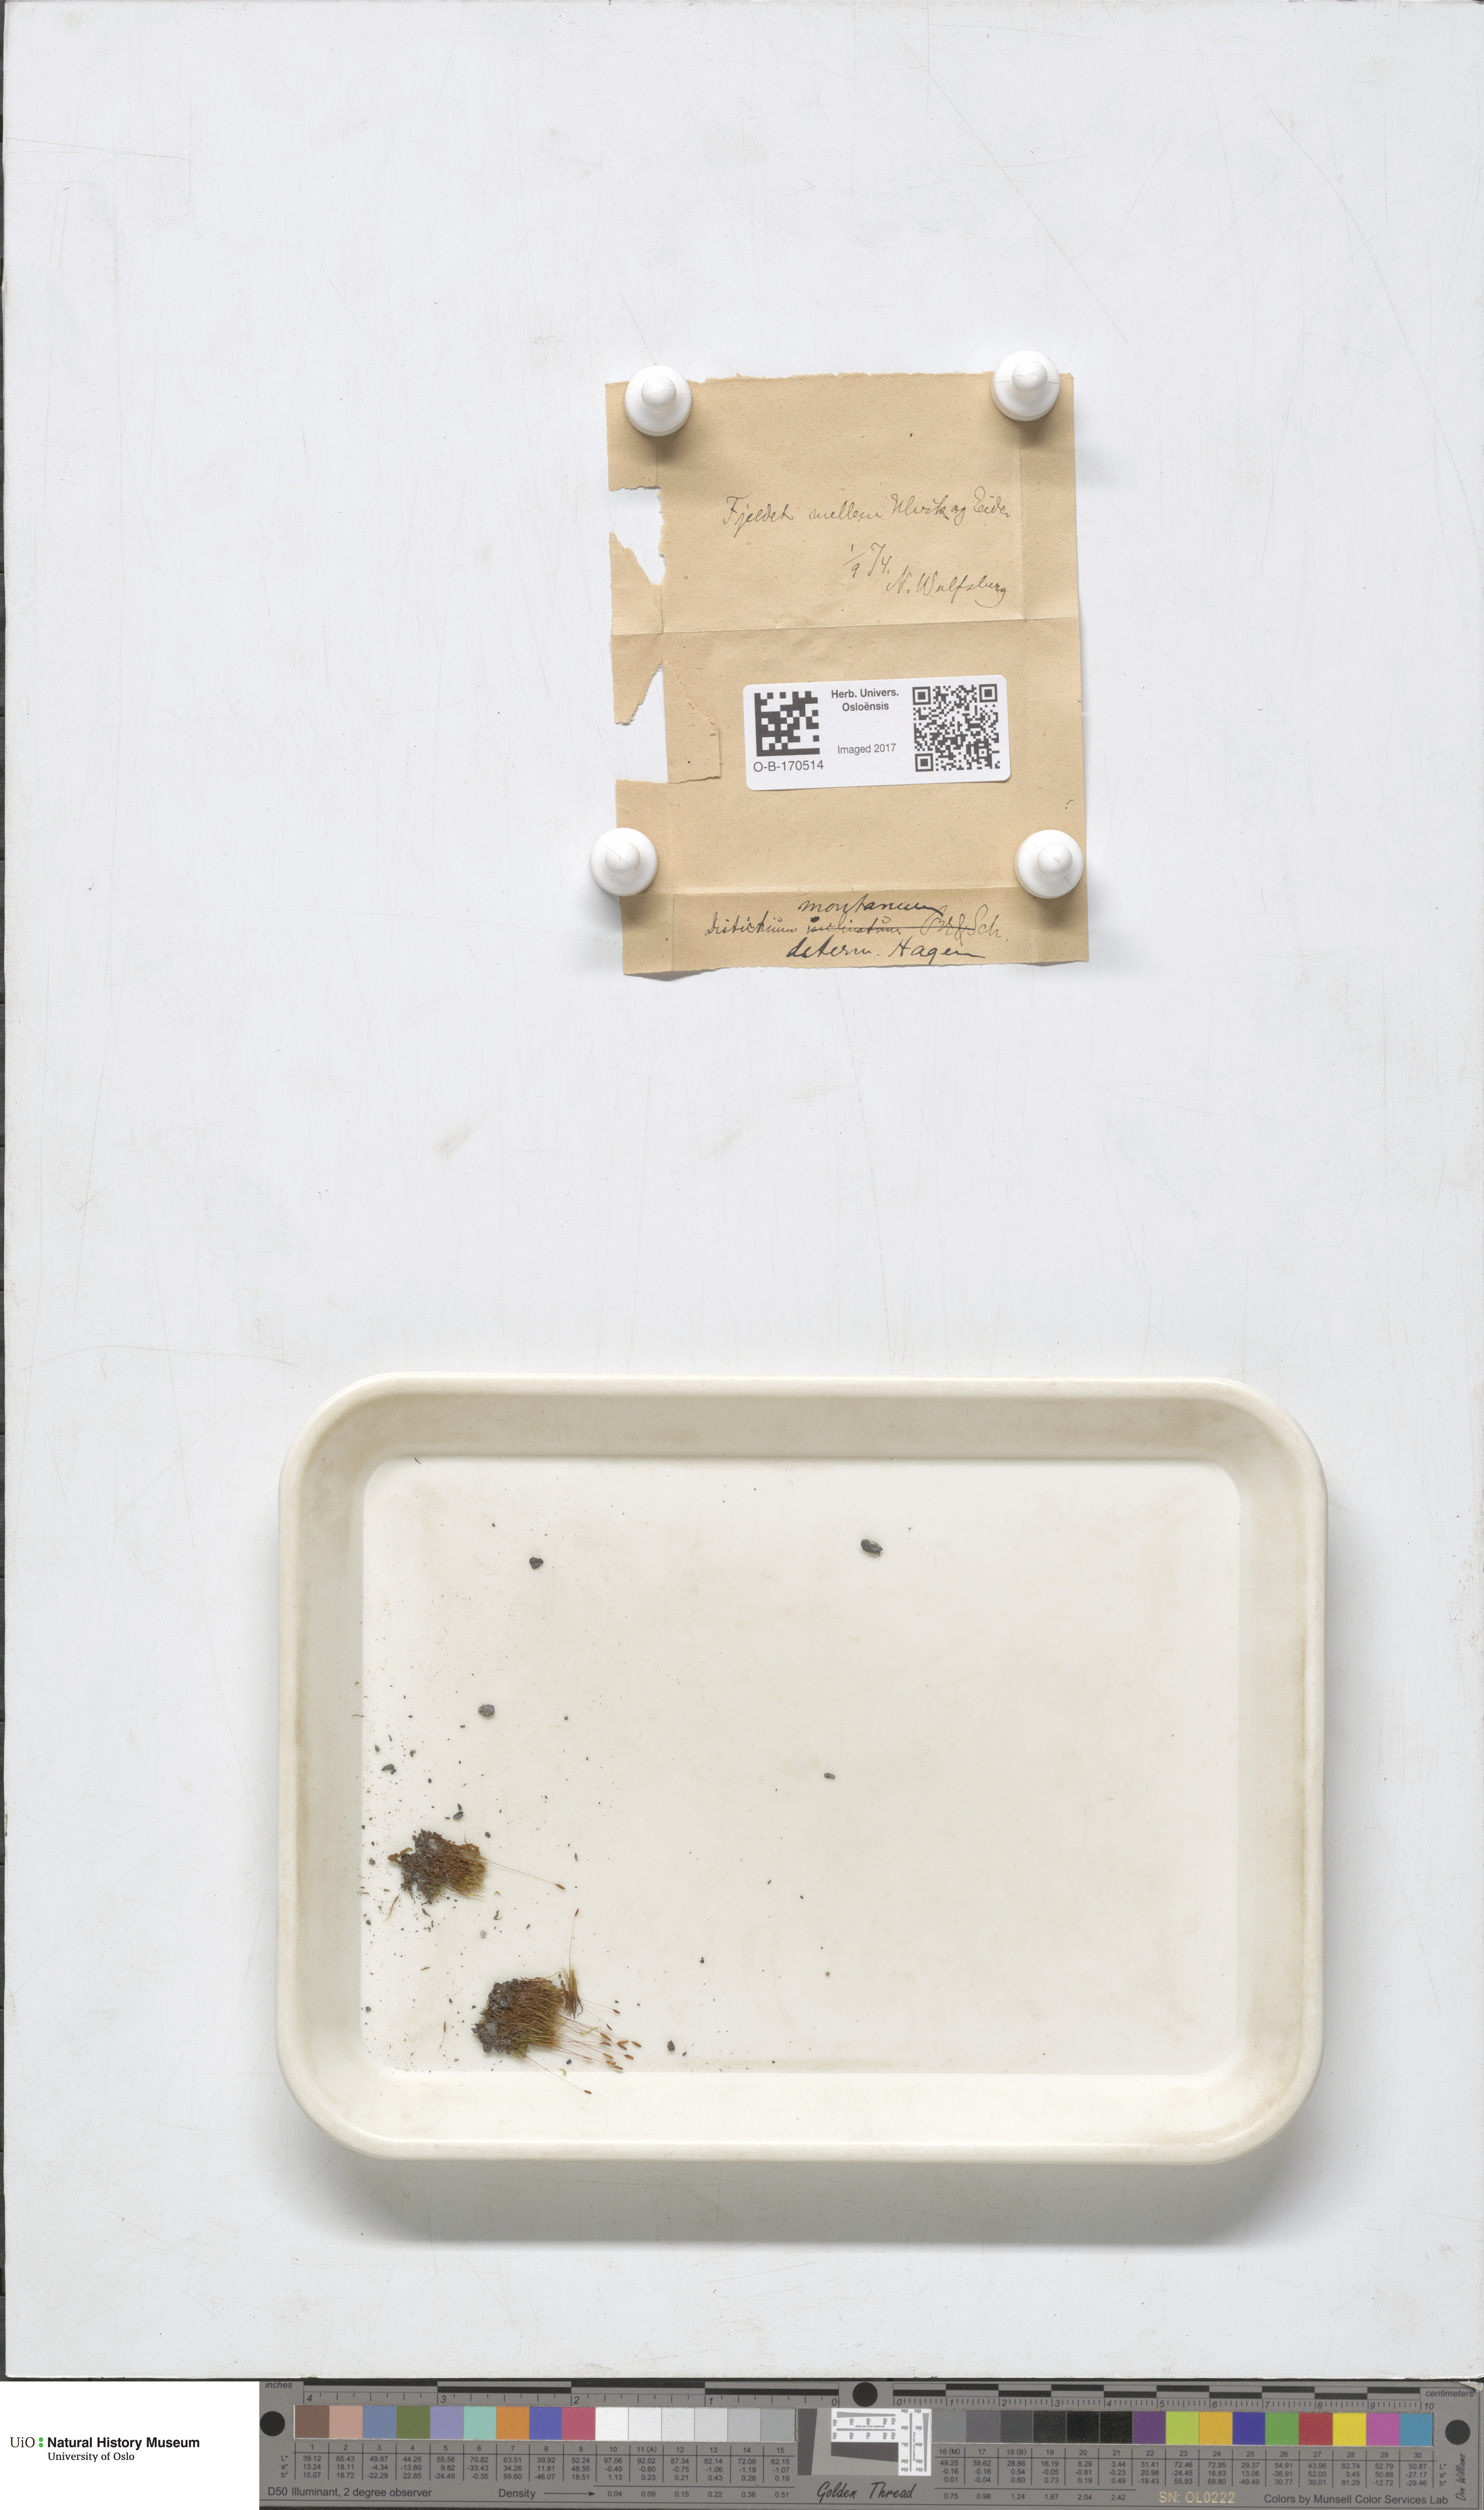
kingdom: Plantae
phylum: Bryophyta
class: Bryopsida
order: Scouleriales
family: Distichiaceae
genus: Distichium
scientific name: Distichium capillaceum
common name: Erect-fruited iris moss
